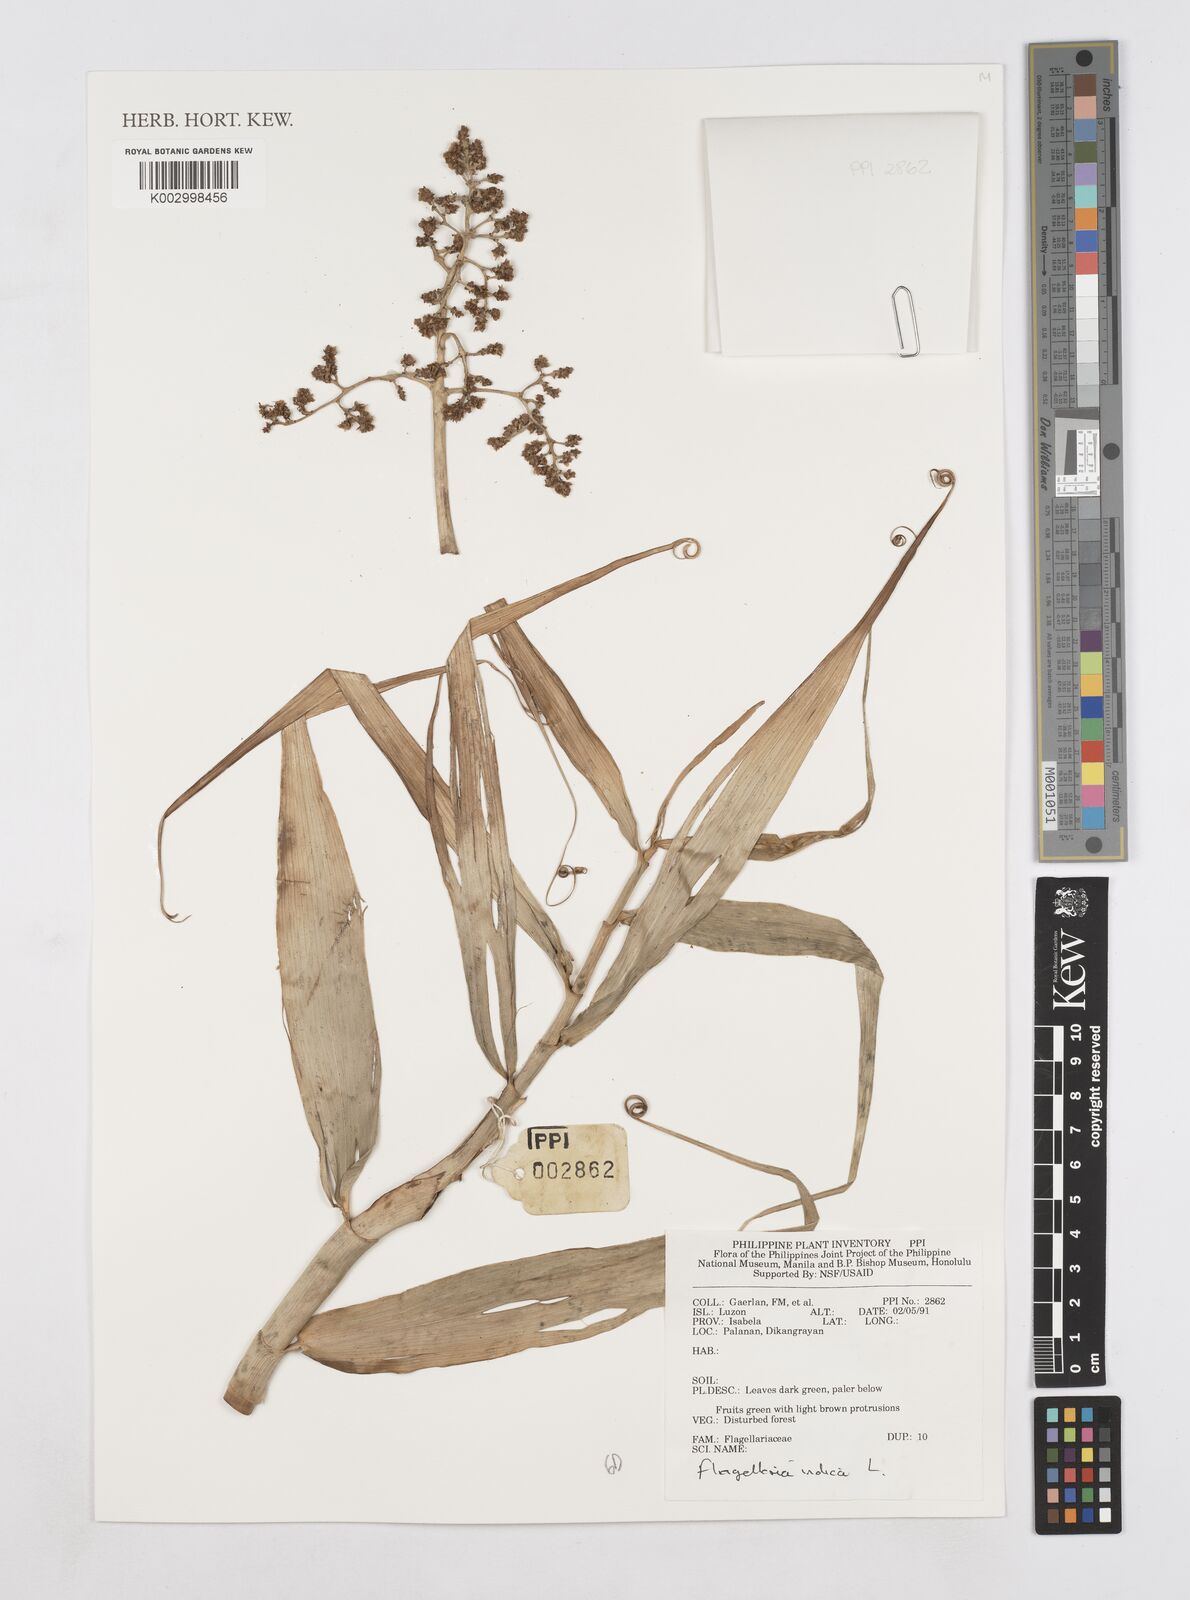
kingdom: Plantae
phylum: Tracheophyta
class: Liliopsida
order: Poales
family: Flagellariaceae
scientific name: Flagellariaceae
